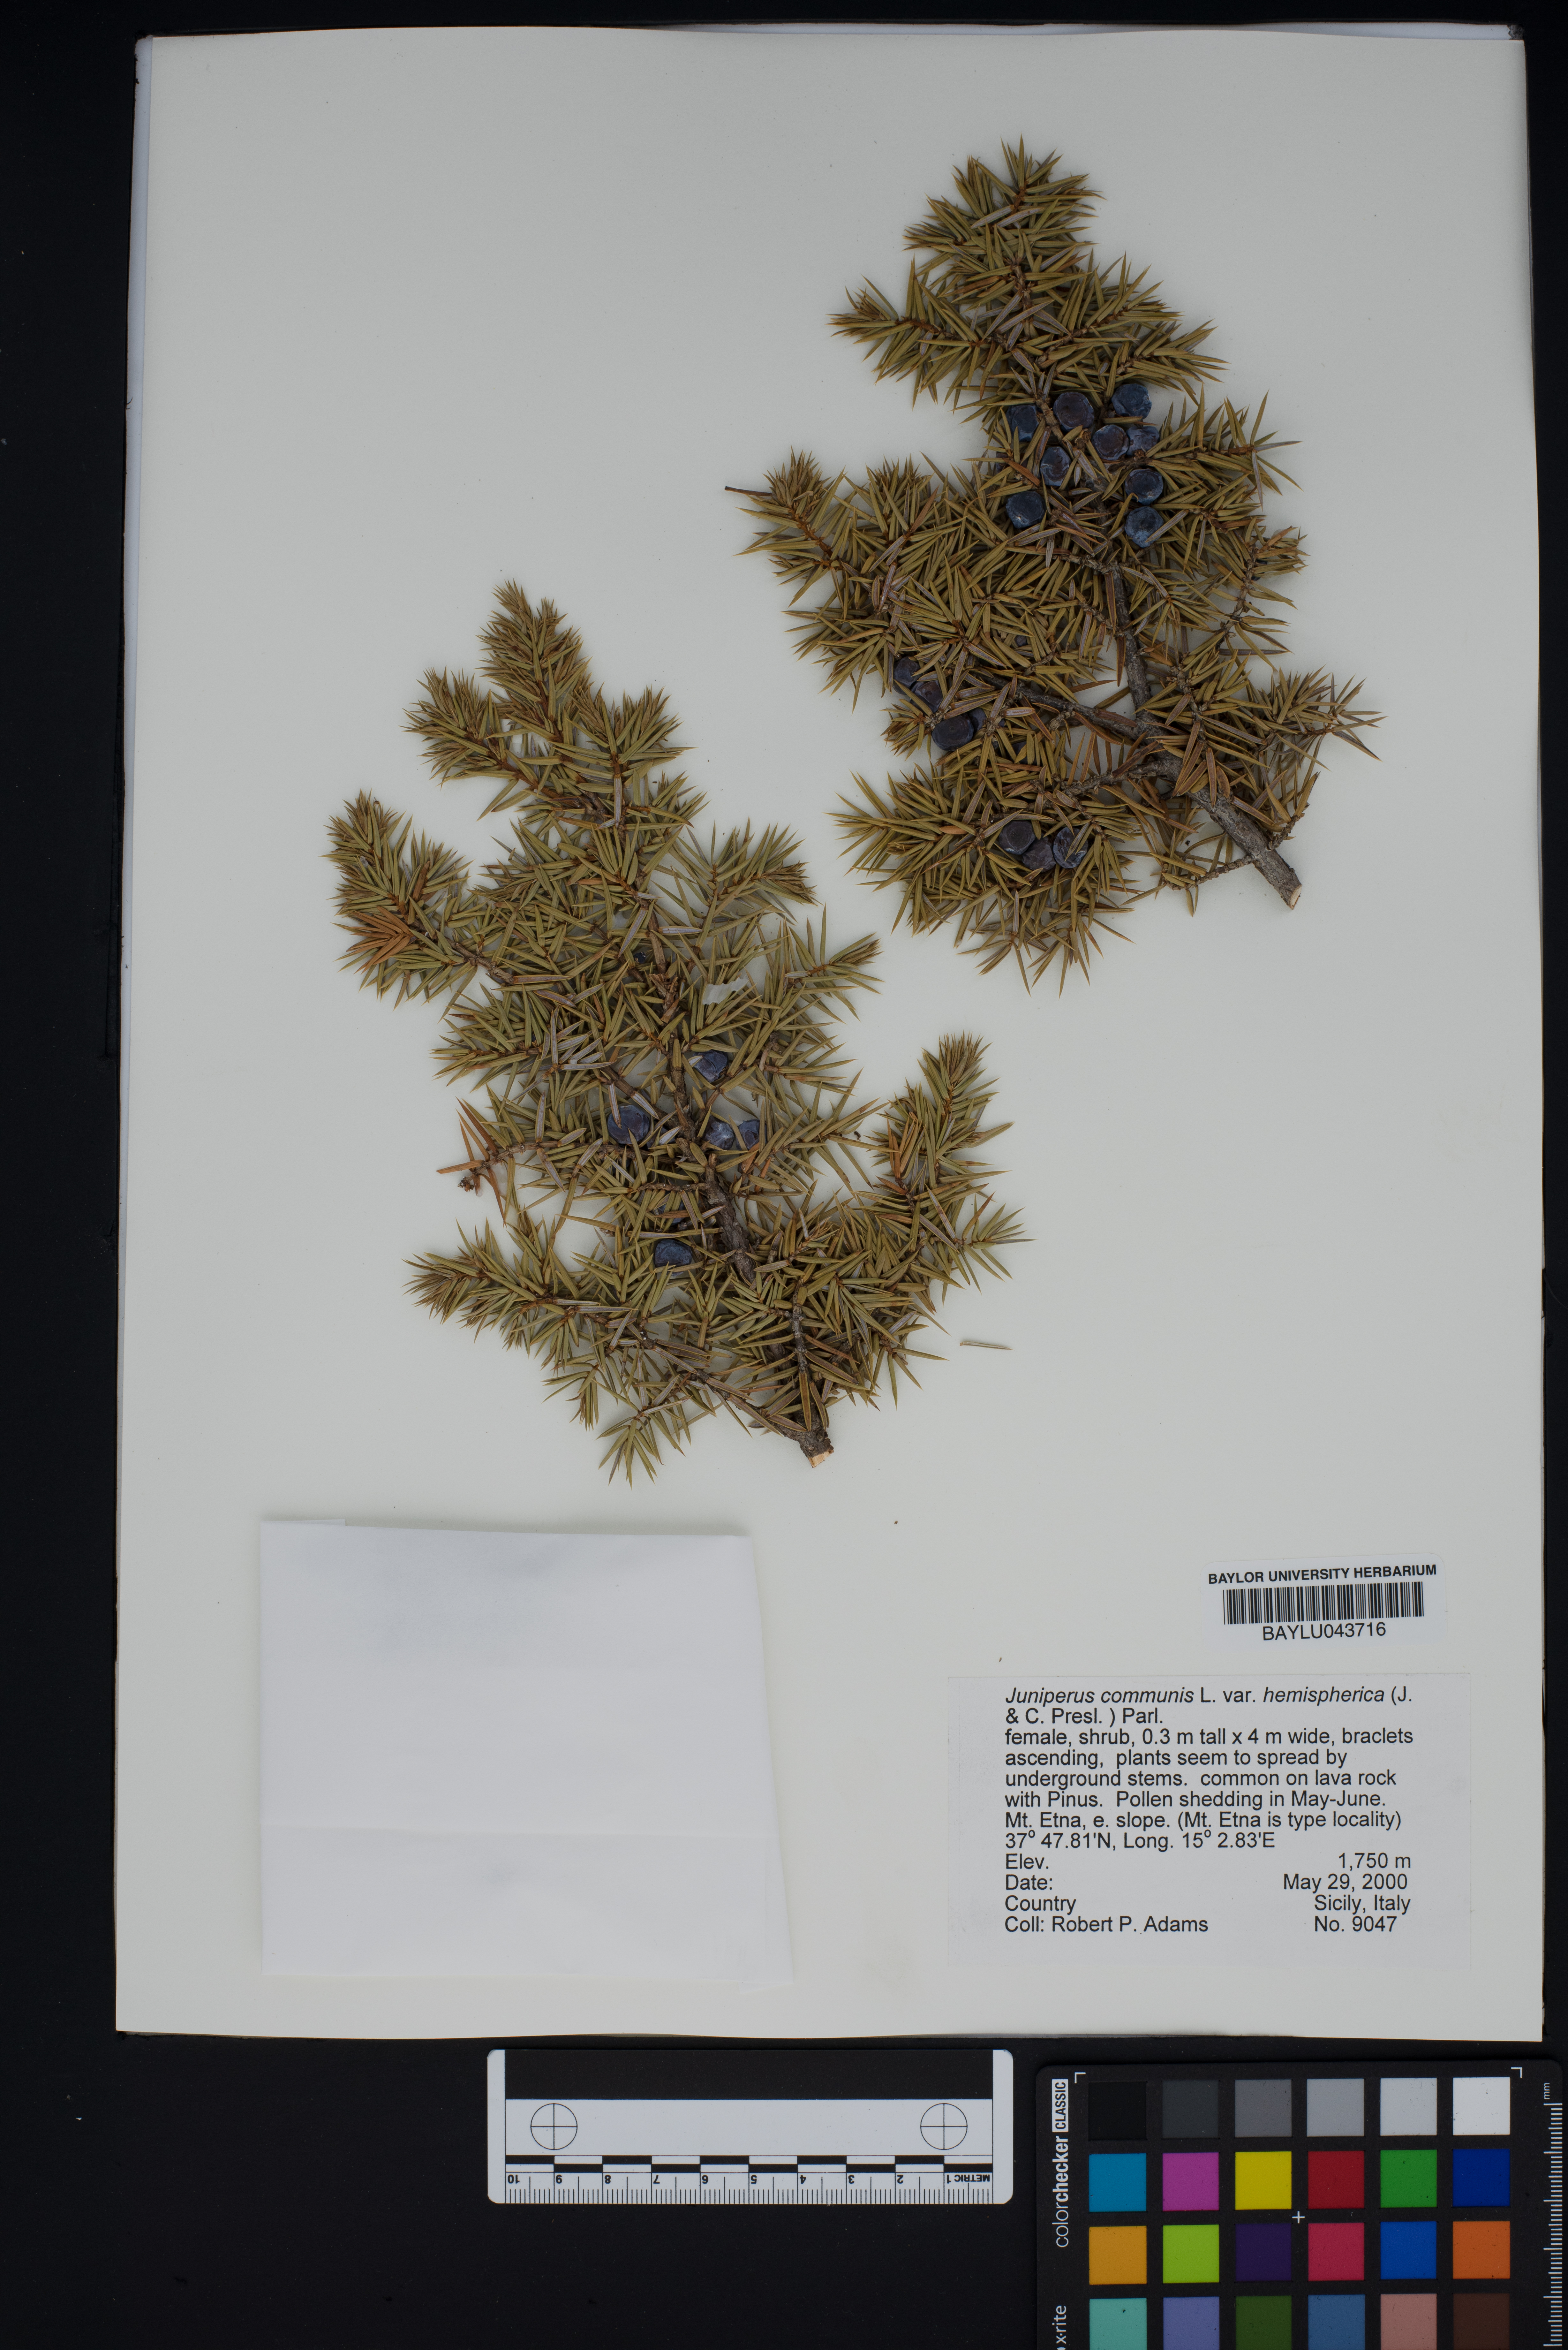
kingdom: Plantae
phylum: Tracheophyta
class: Pinopsida
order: Pinales
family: Cupressaceae
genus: Juniperus
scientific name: Juniperus communis
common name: Common juniper
